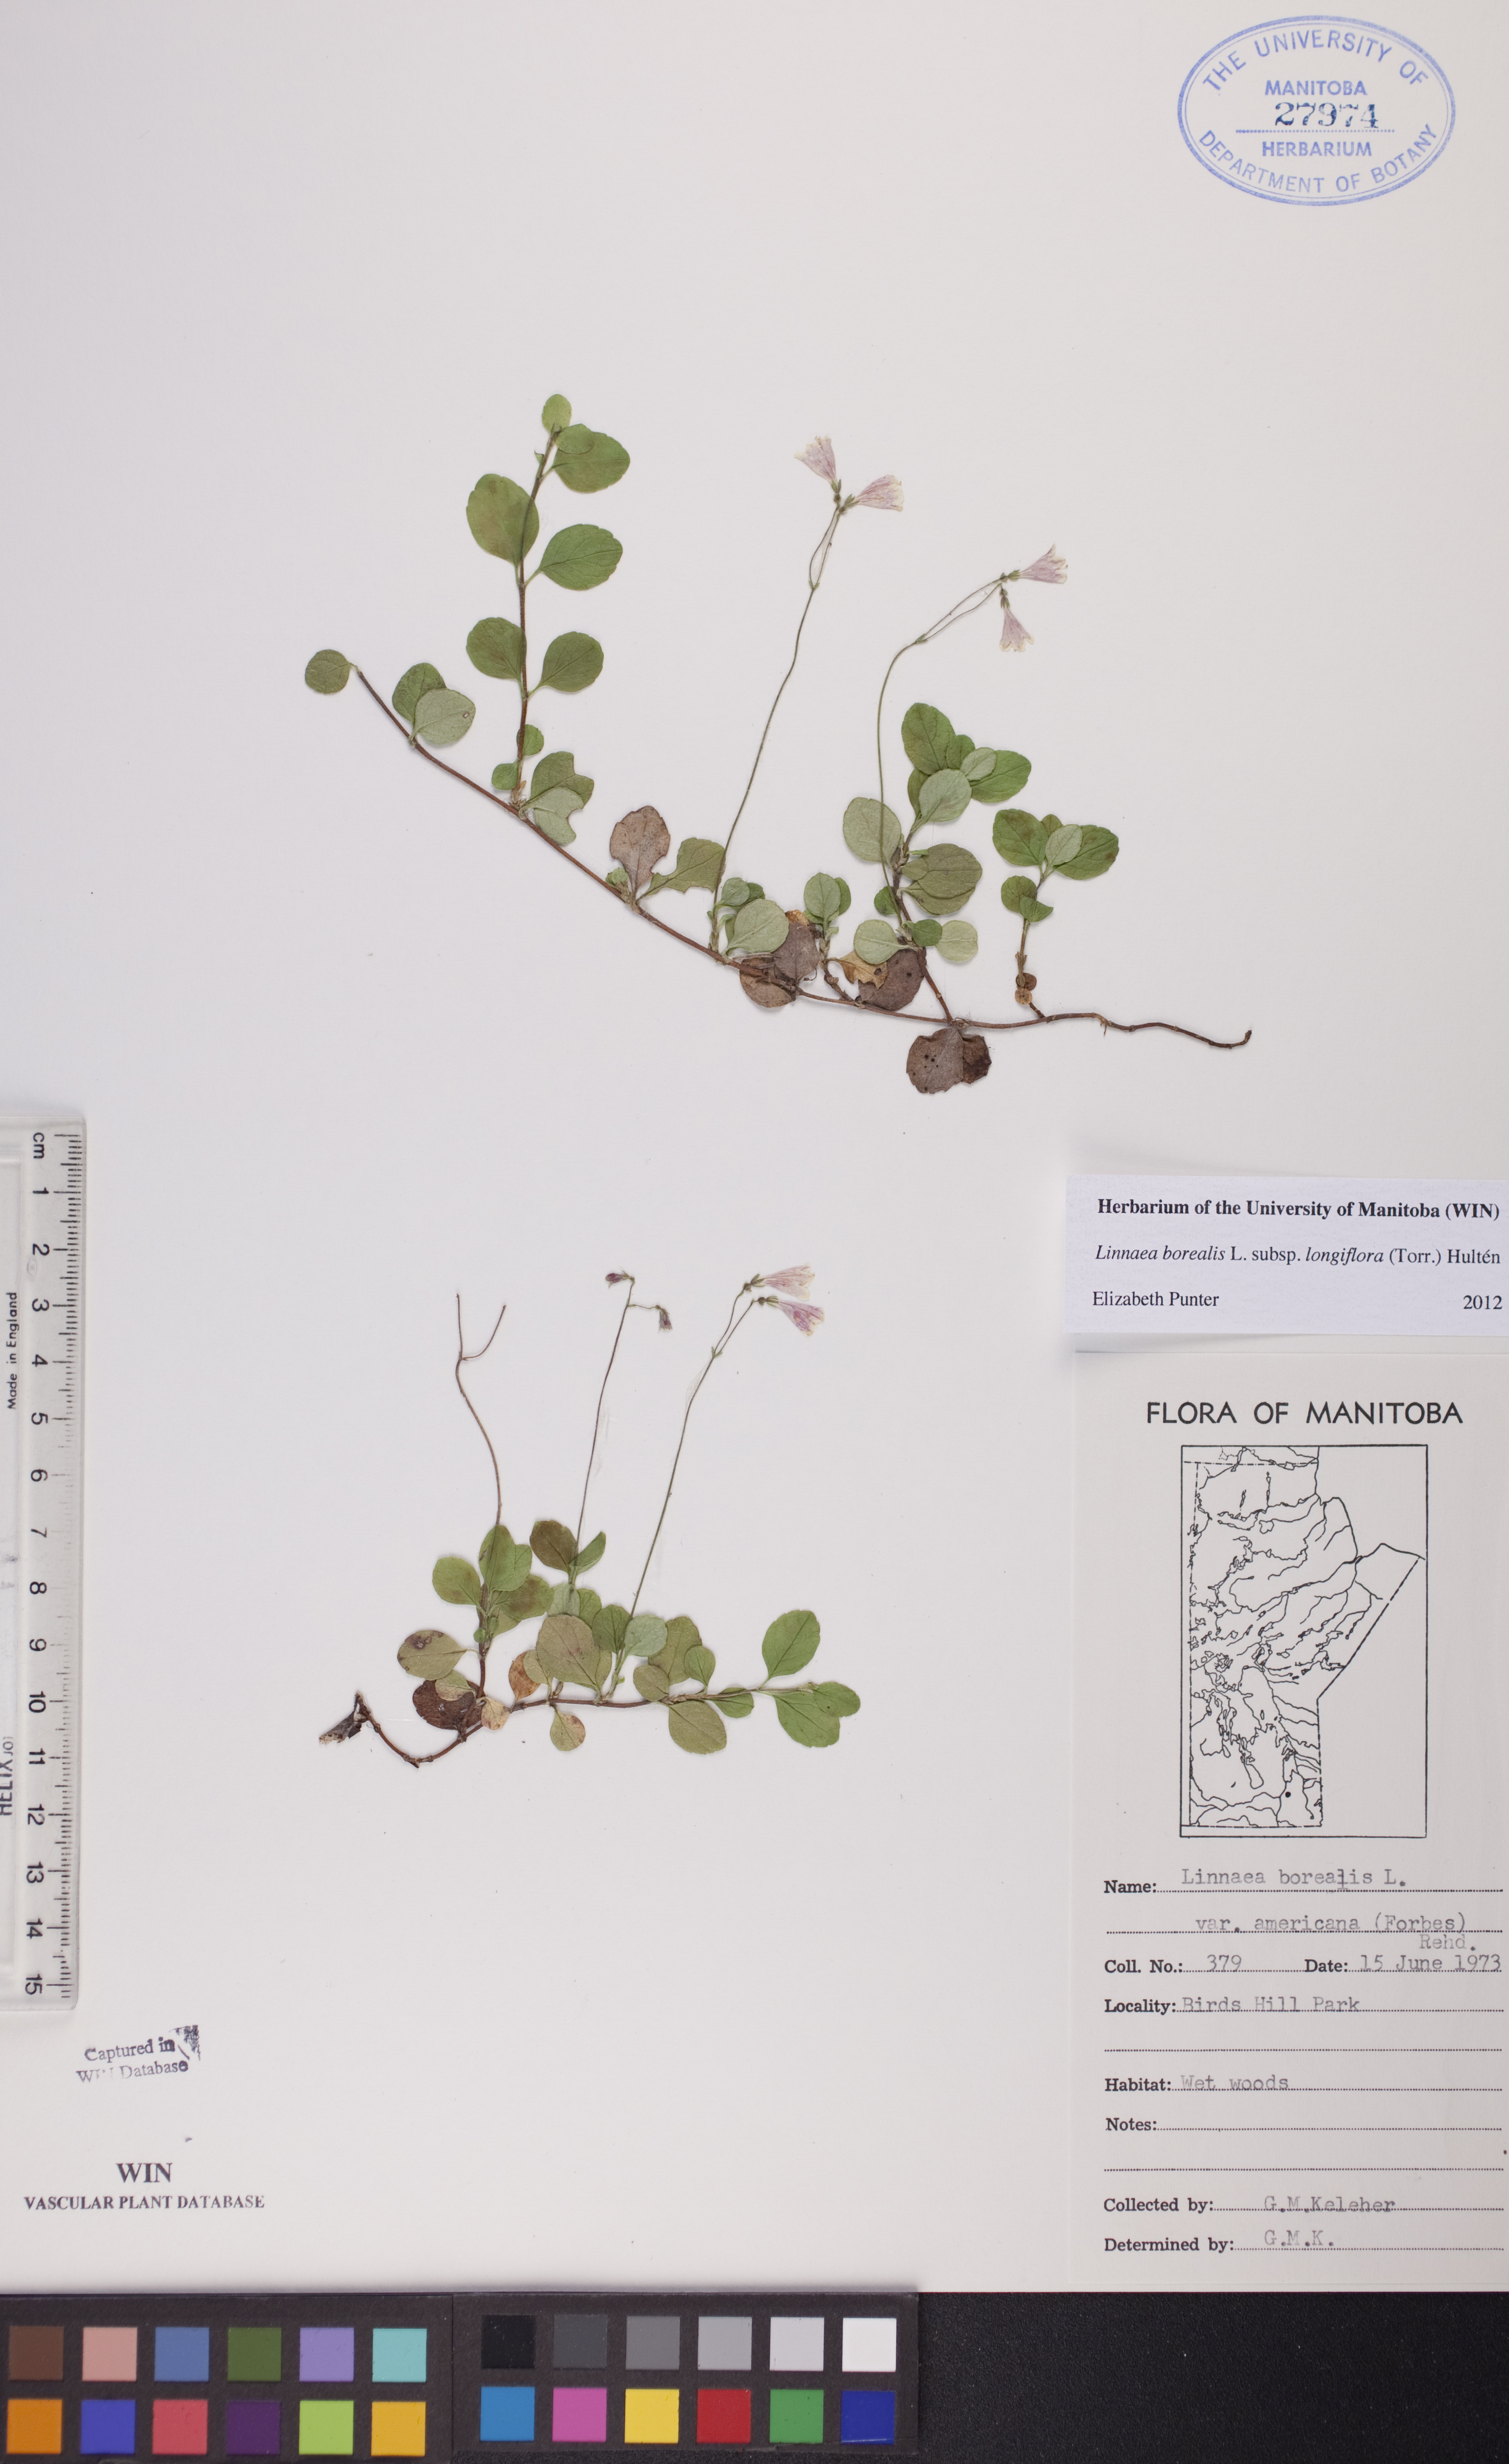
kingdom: Plantae
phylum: Tracheophyta
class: Magnoliopsida
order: Dipsacales
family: Caprifoliaceae
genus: Linnaea
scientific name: Linnaea borealis
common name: Twinflower
